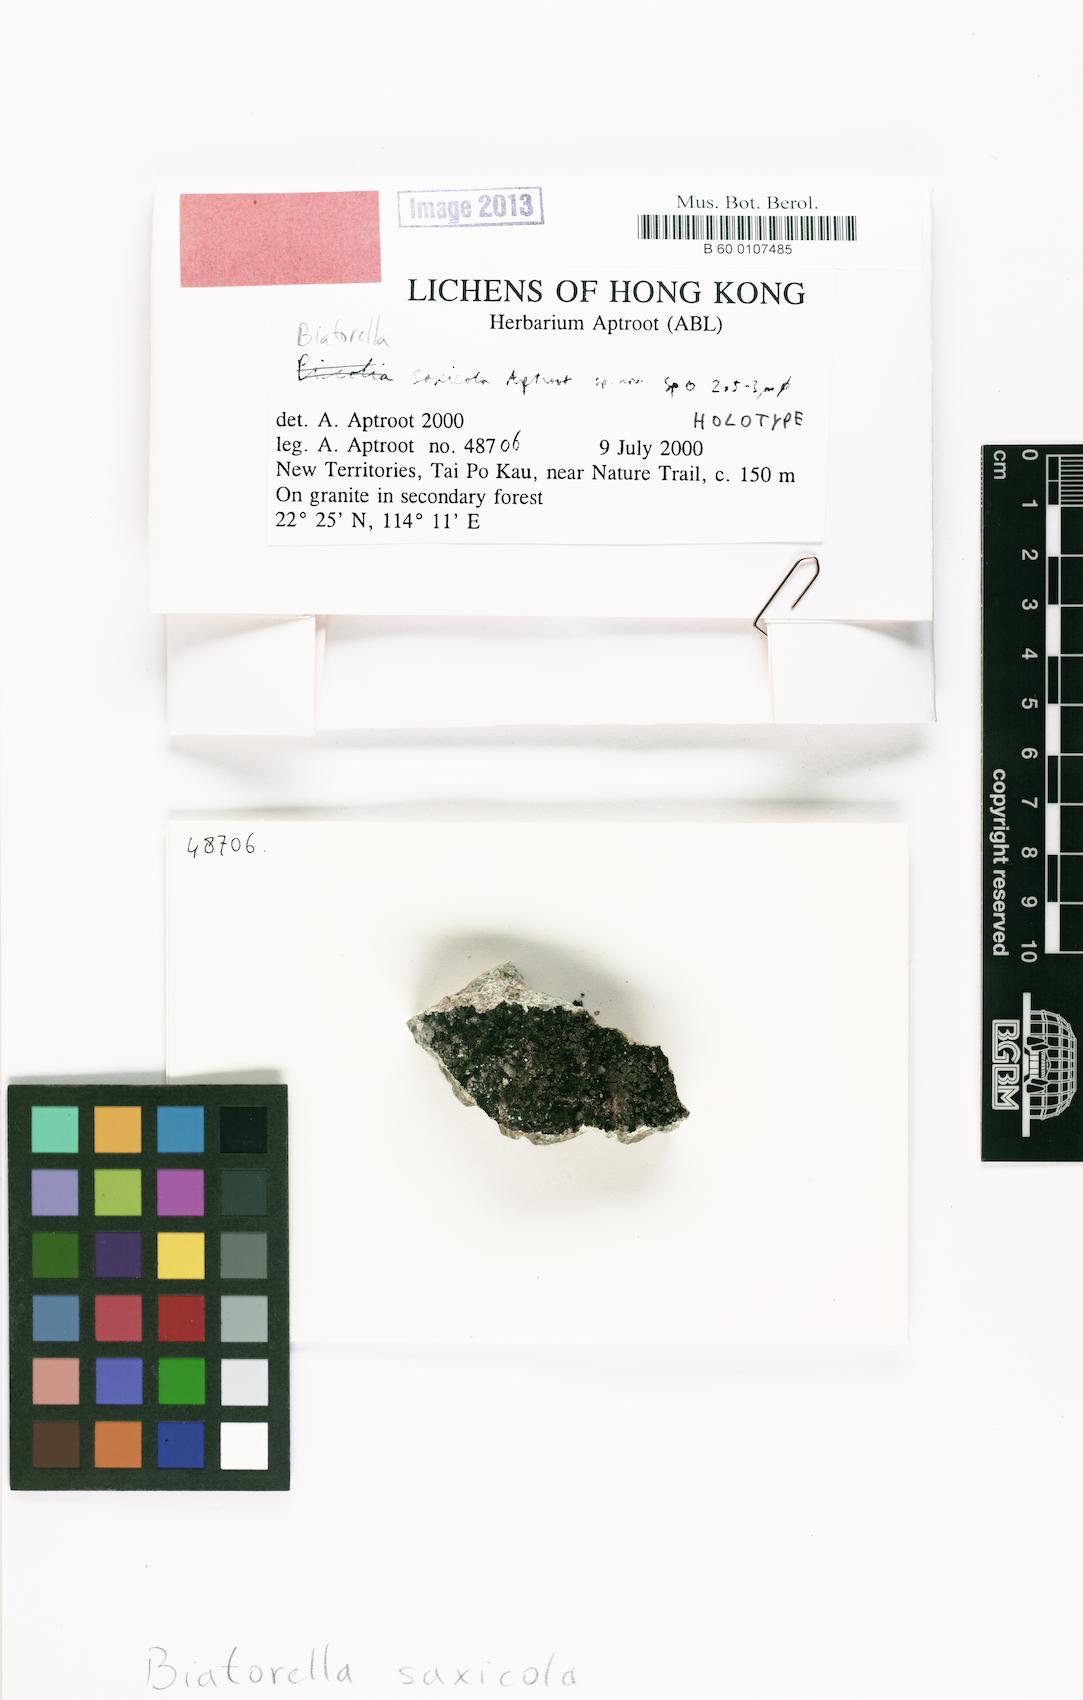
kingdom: Fungi
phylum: Ascomycota
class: Lecanoromycetes
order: Lecanorales
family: Biatorellaceae
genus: Biatorella
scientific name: Biatorella saxicola
